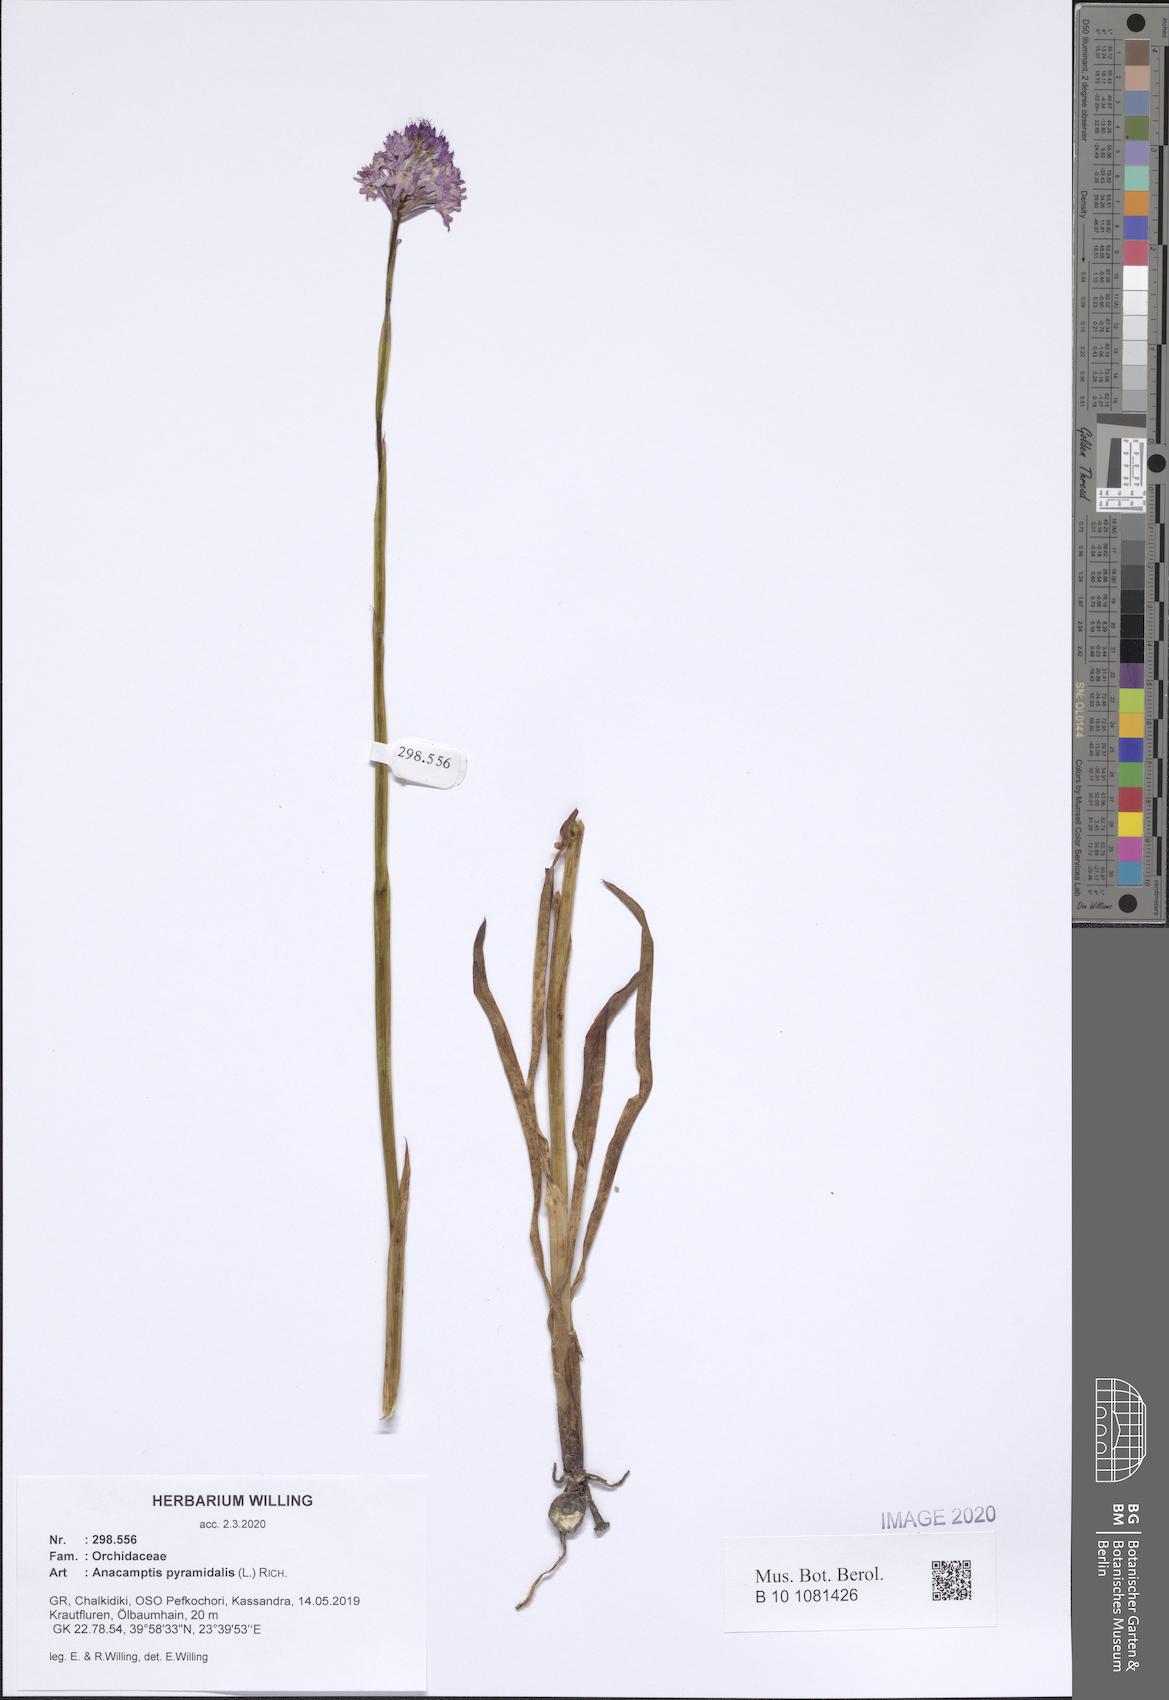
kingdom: Plantae
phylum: Tracheophyta
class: Liliopsida
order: Asparagales
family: Orchidaceae
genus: Anacamptis
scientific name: Anacamptis pyramidalis
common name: Pyramidal orchid
